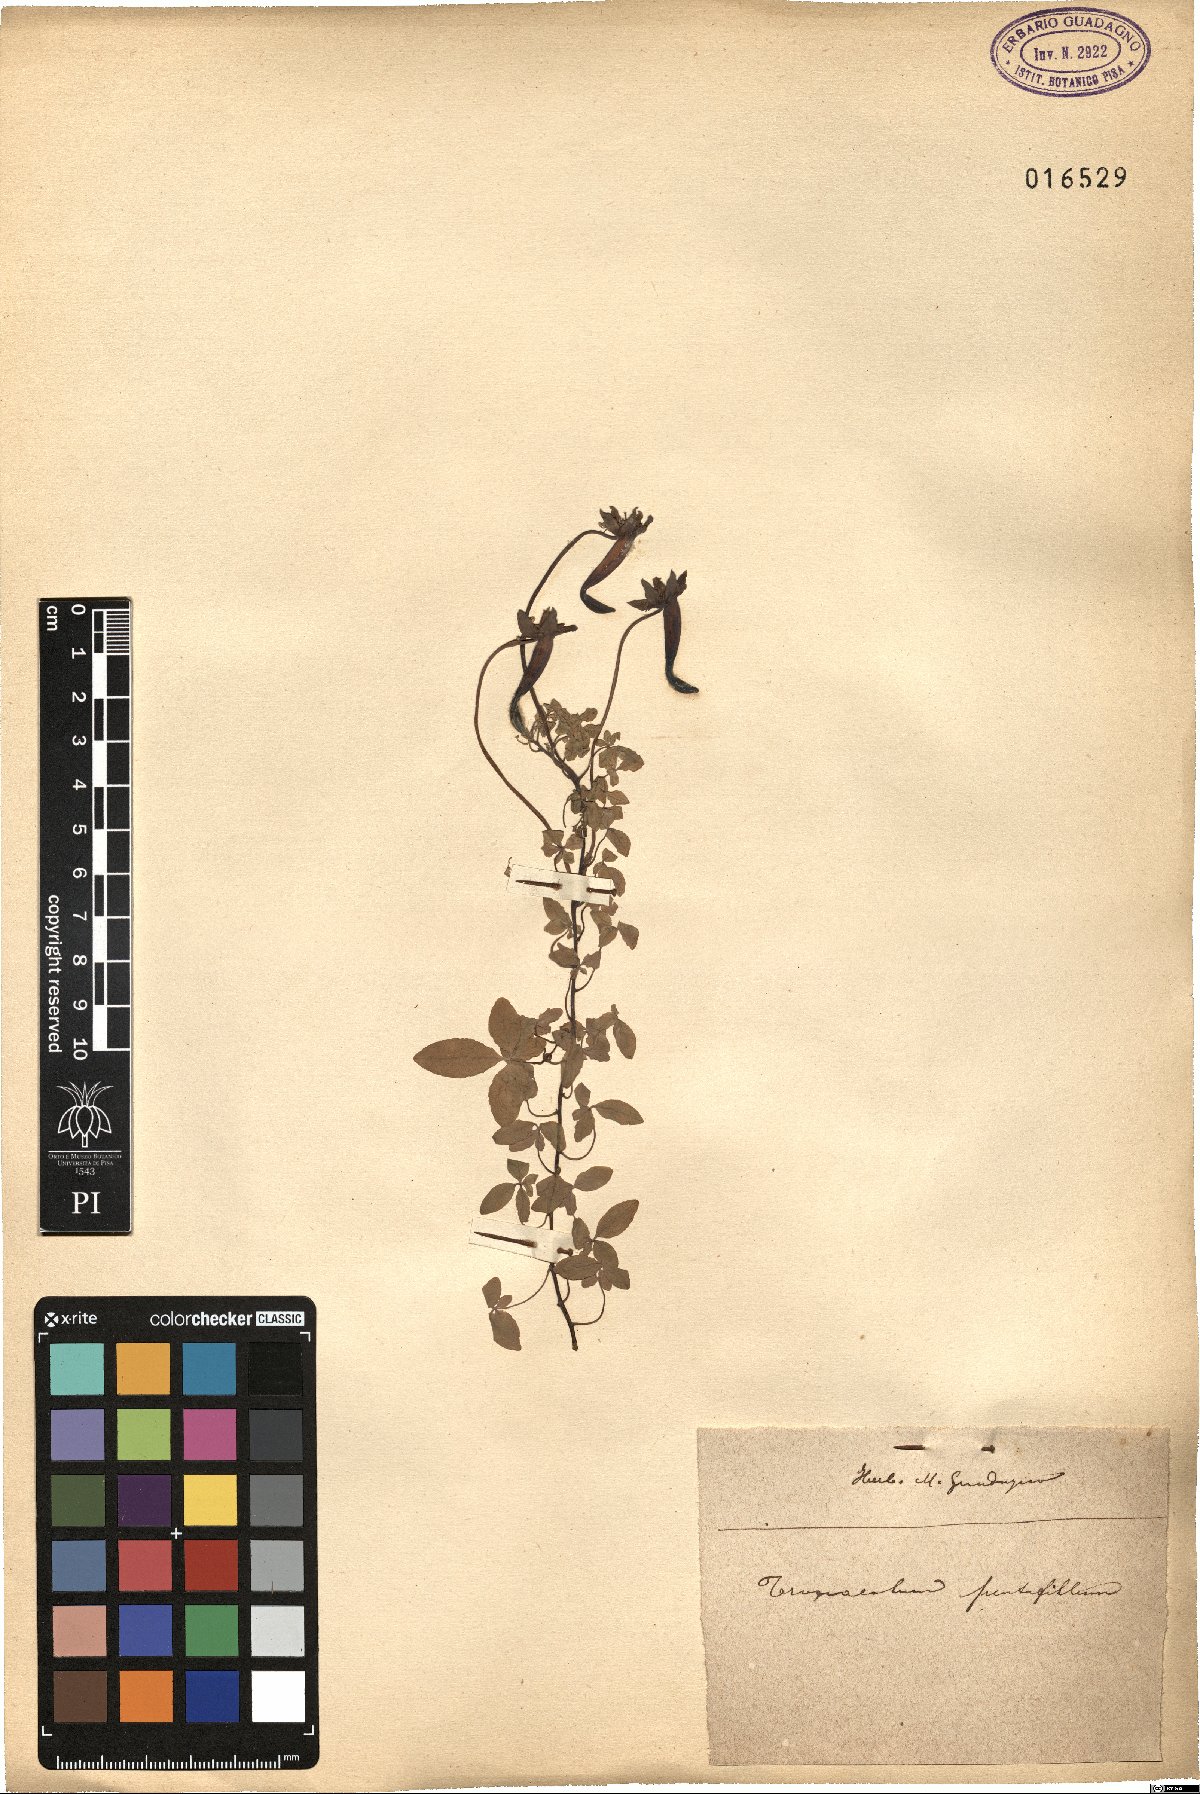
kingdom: Plantae
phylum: Tracheophyta
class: Magnoliopsida
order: Brassicales
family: Tropaeolaceae
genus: Tropaeolum
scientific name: Tropaeolum pentaphyllum
